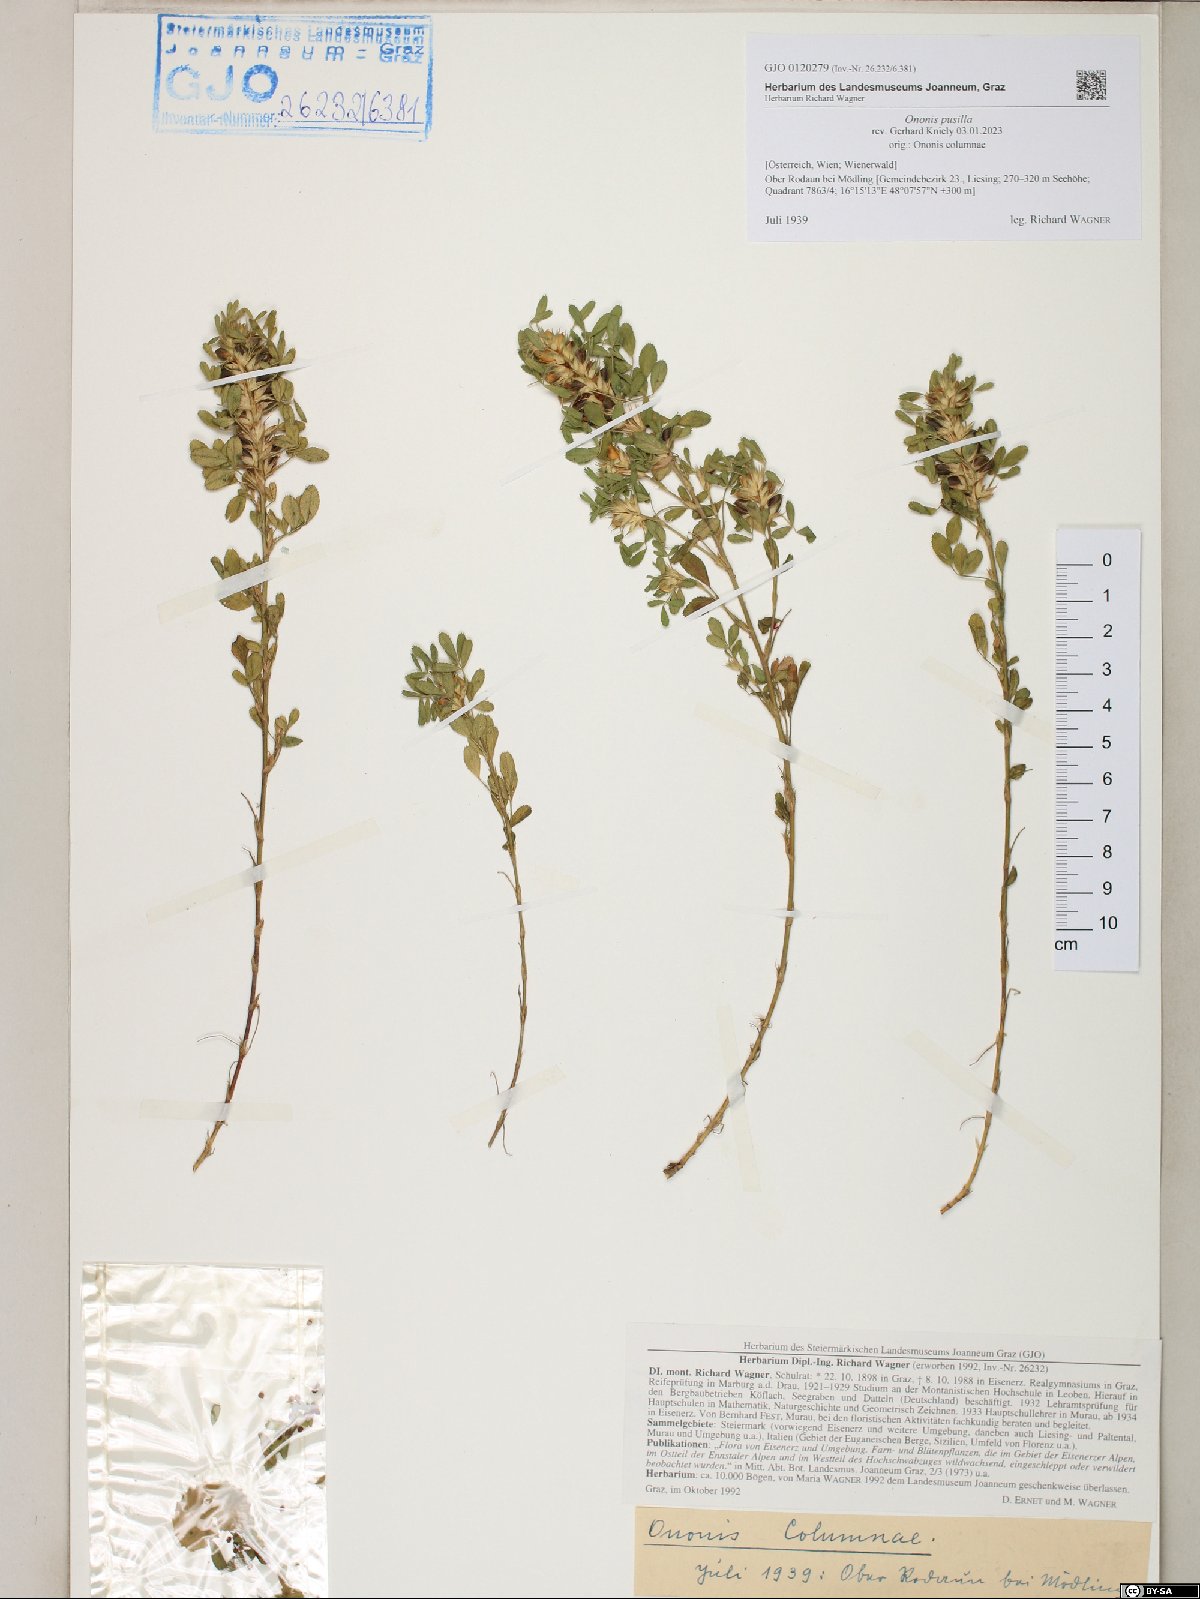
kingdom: Plantae
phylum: Tracheophyta
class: Magnoliopsida
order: Fabales
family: Fabaceae
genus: Ononis
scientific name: Ononis pusilla
